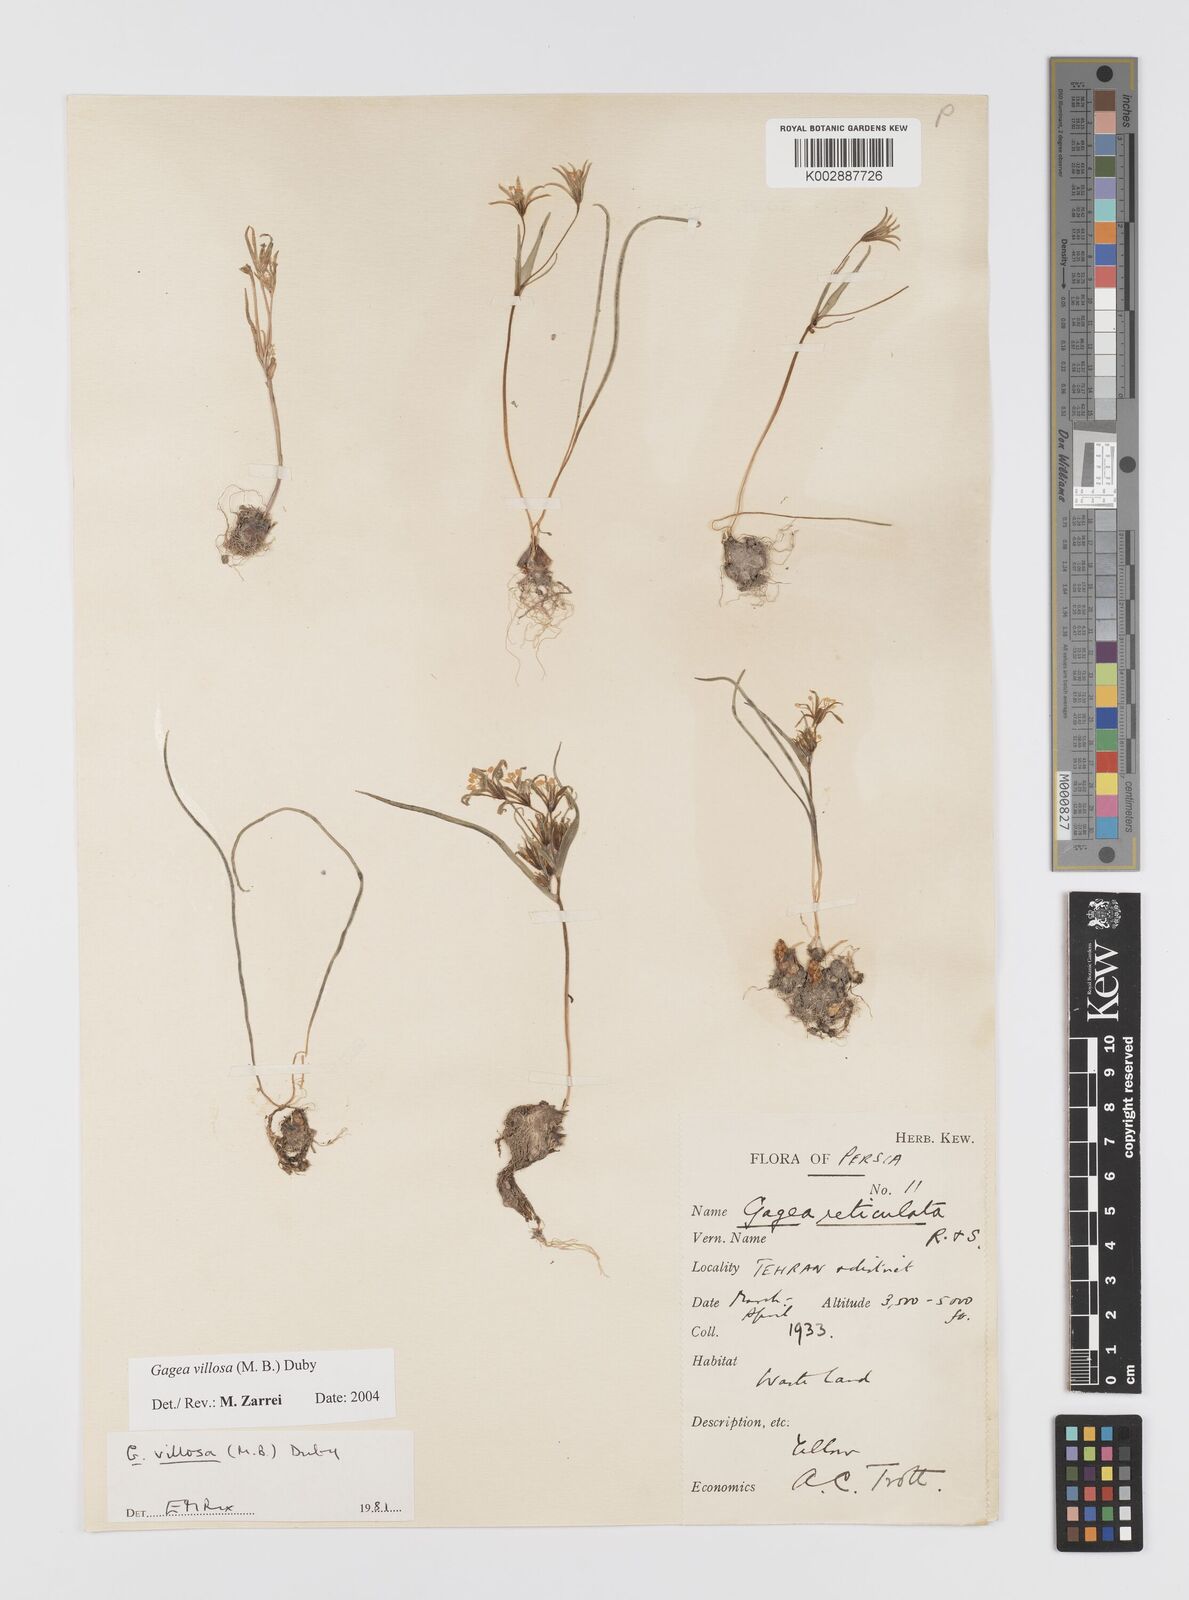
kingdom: Plantae
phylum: Tracheophyta
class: Liliopsida
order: Liliales
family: Liliaceae
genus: Gagea
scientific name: Gagea villosa
